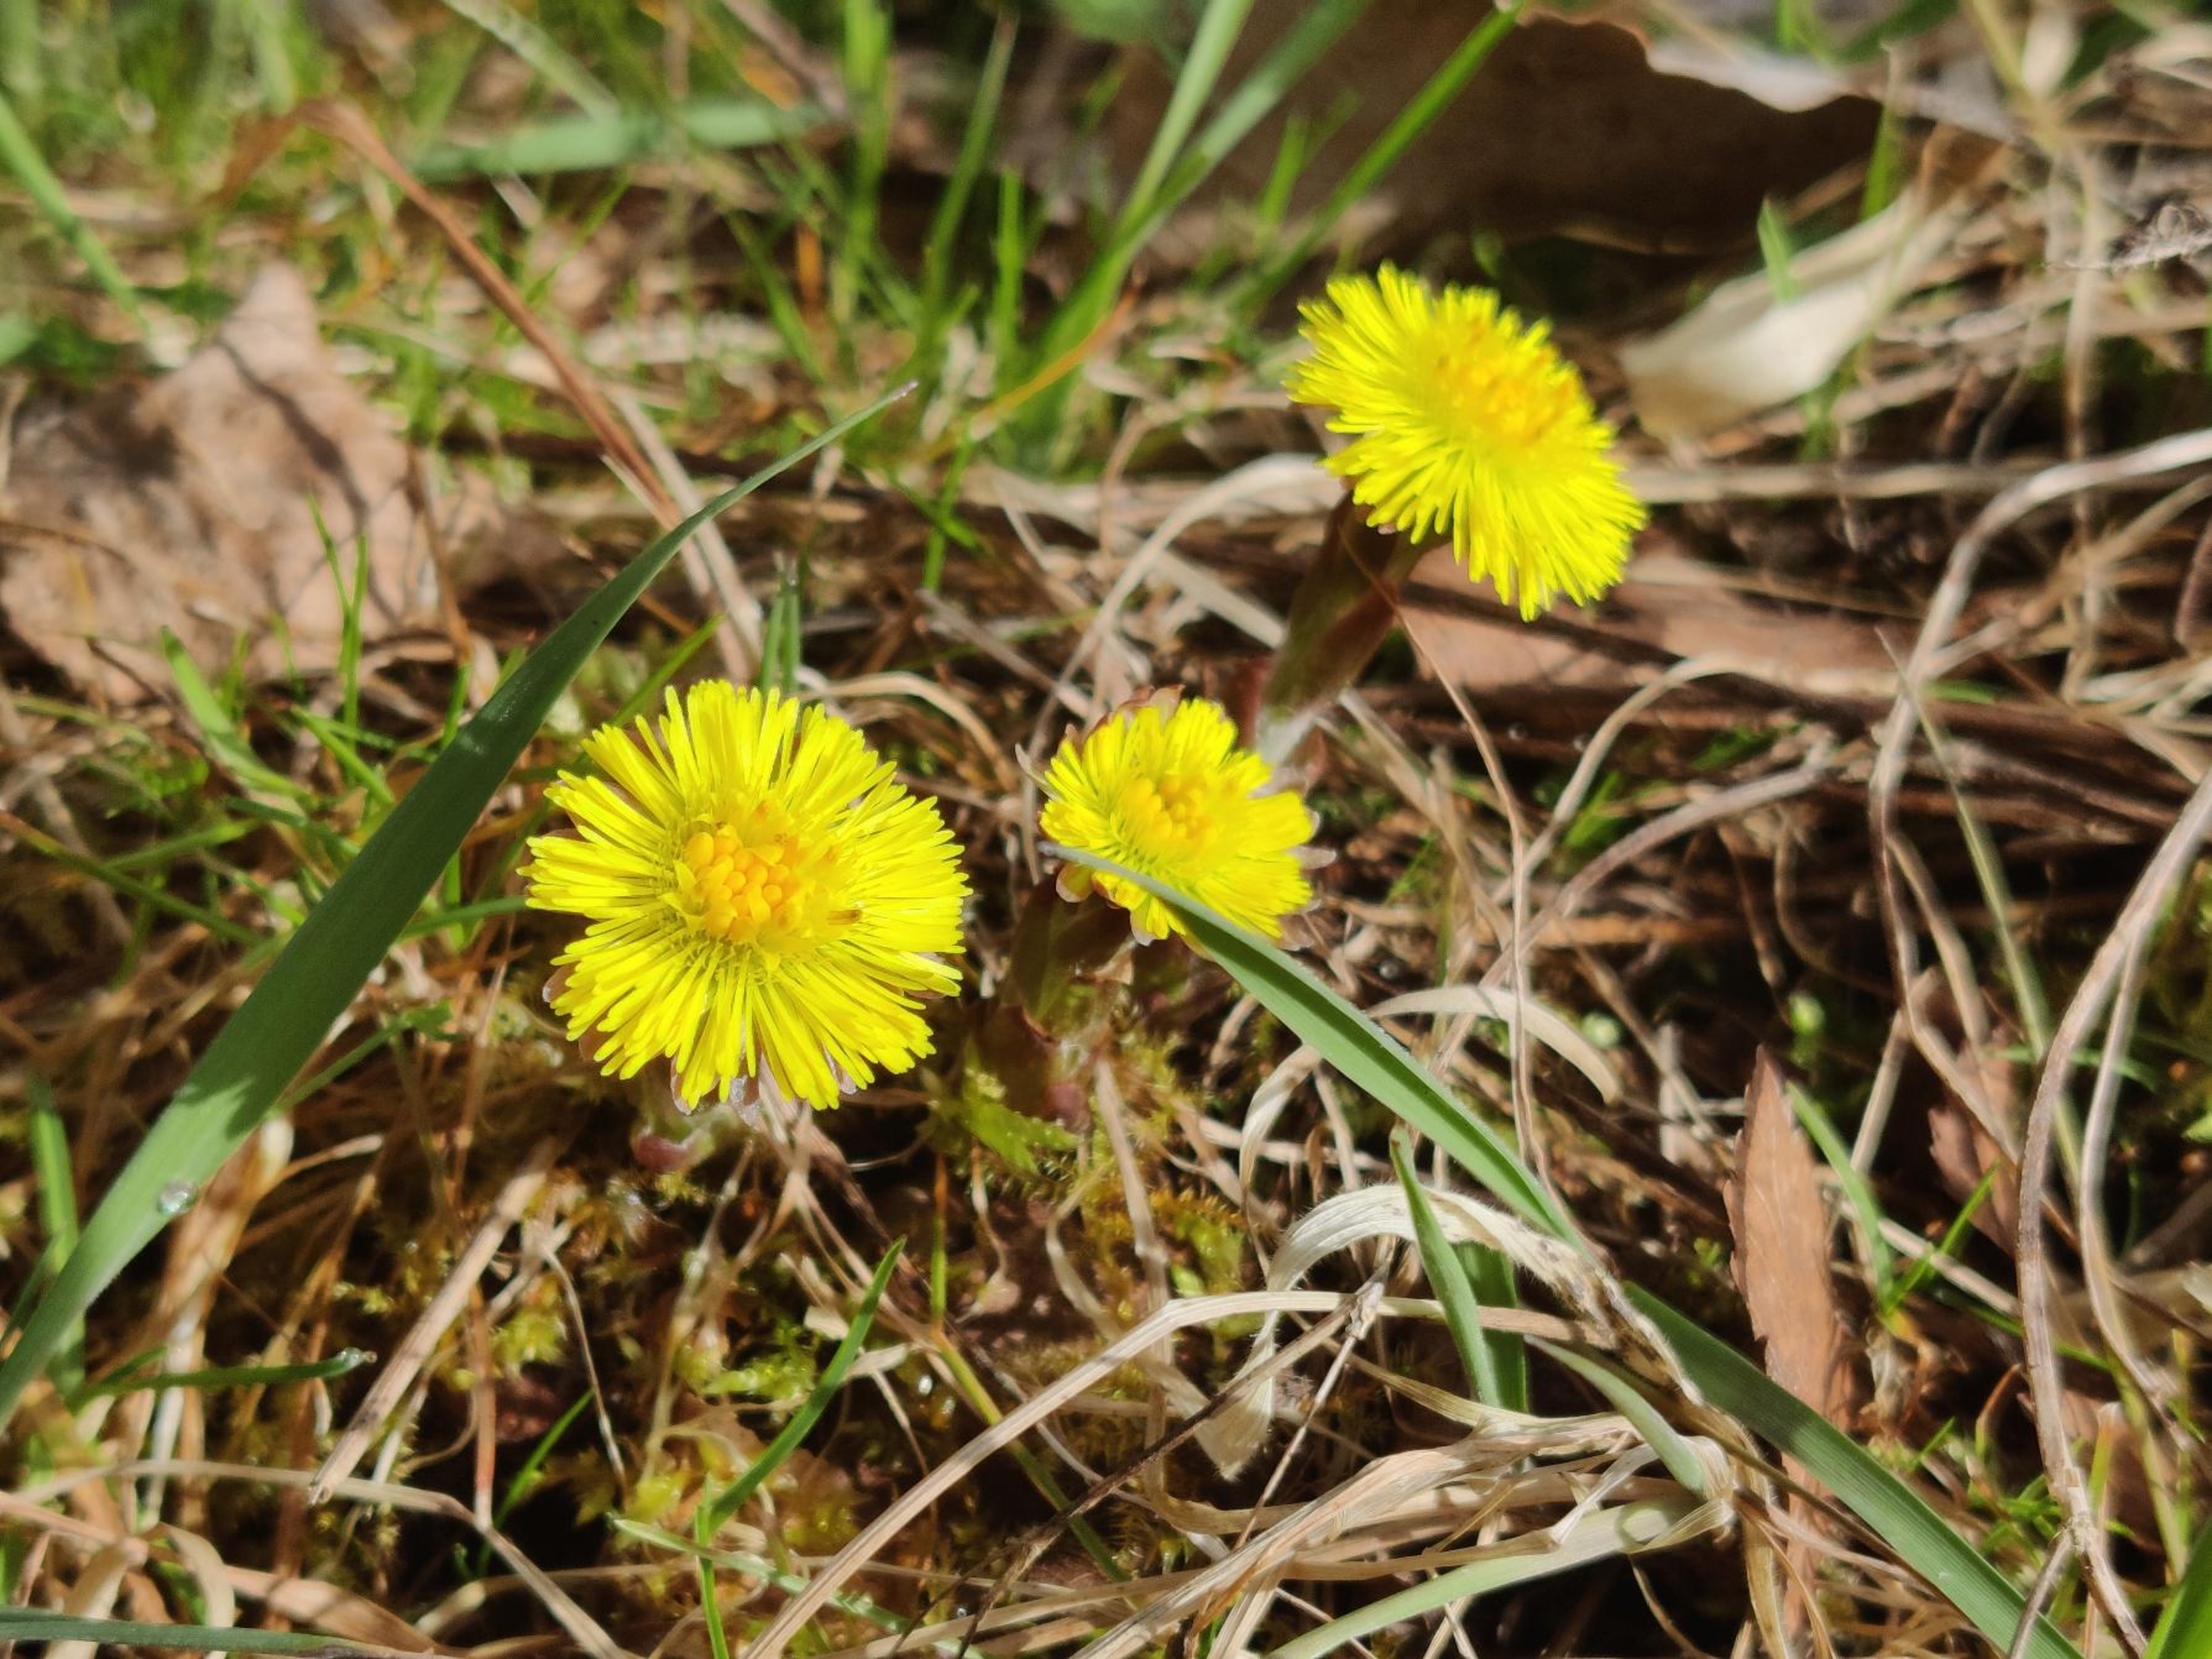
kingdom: Plantae
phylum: Tracheophyta
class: Magnoliopsida
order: Asterales
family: Asteraceae
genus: Tussilago
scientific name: Tussilago farfara
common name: Følfod
